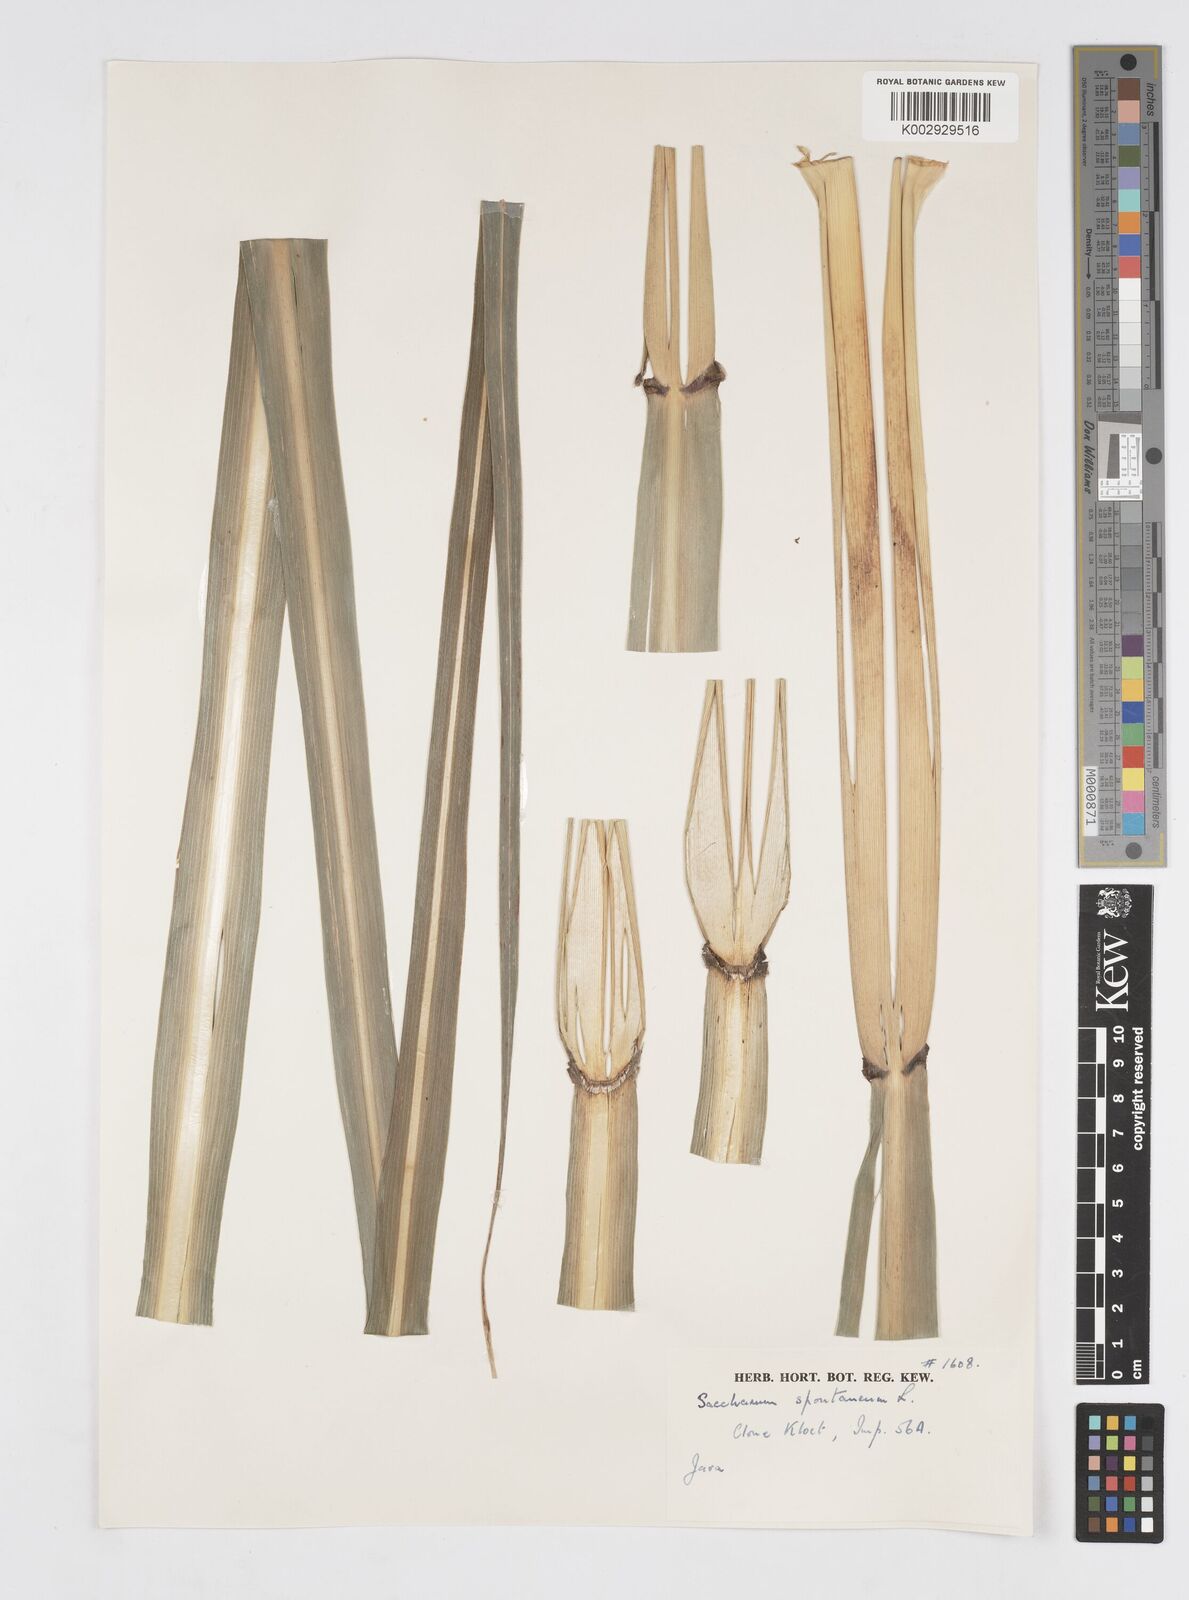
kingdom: Plantae
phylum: Tracheophyta
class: Liliopsida
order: Poales
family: Poaceae
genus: Saccharum
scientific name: Saccharum spontaneum
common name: Wild sugarcane
